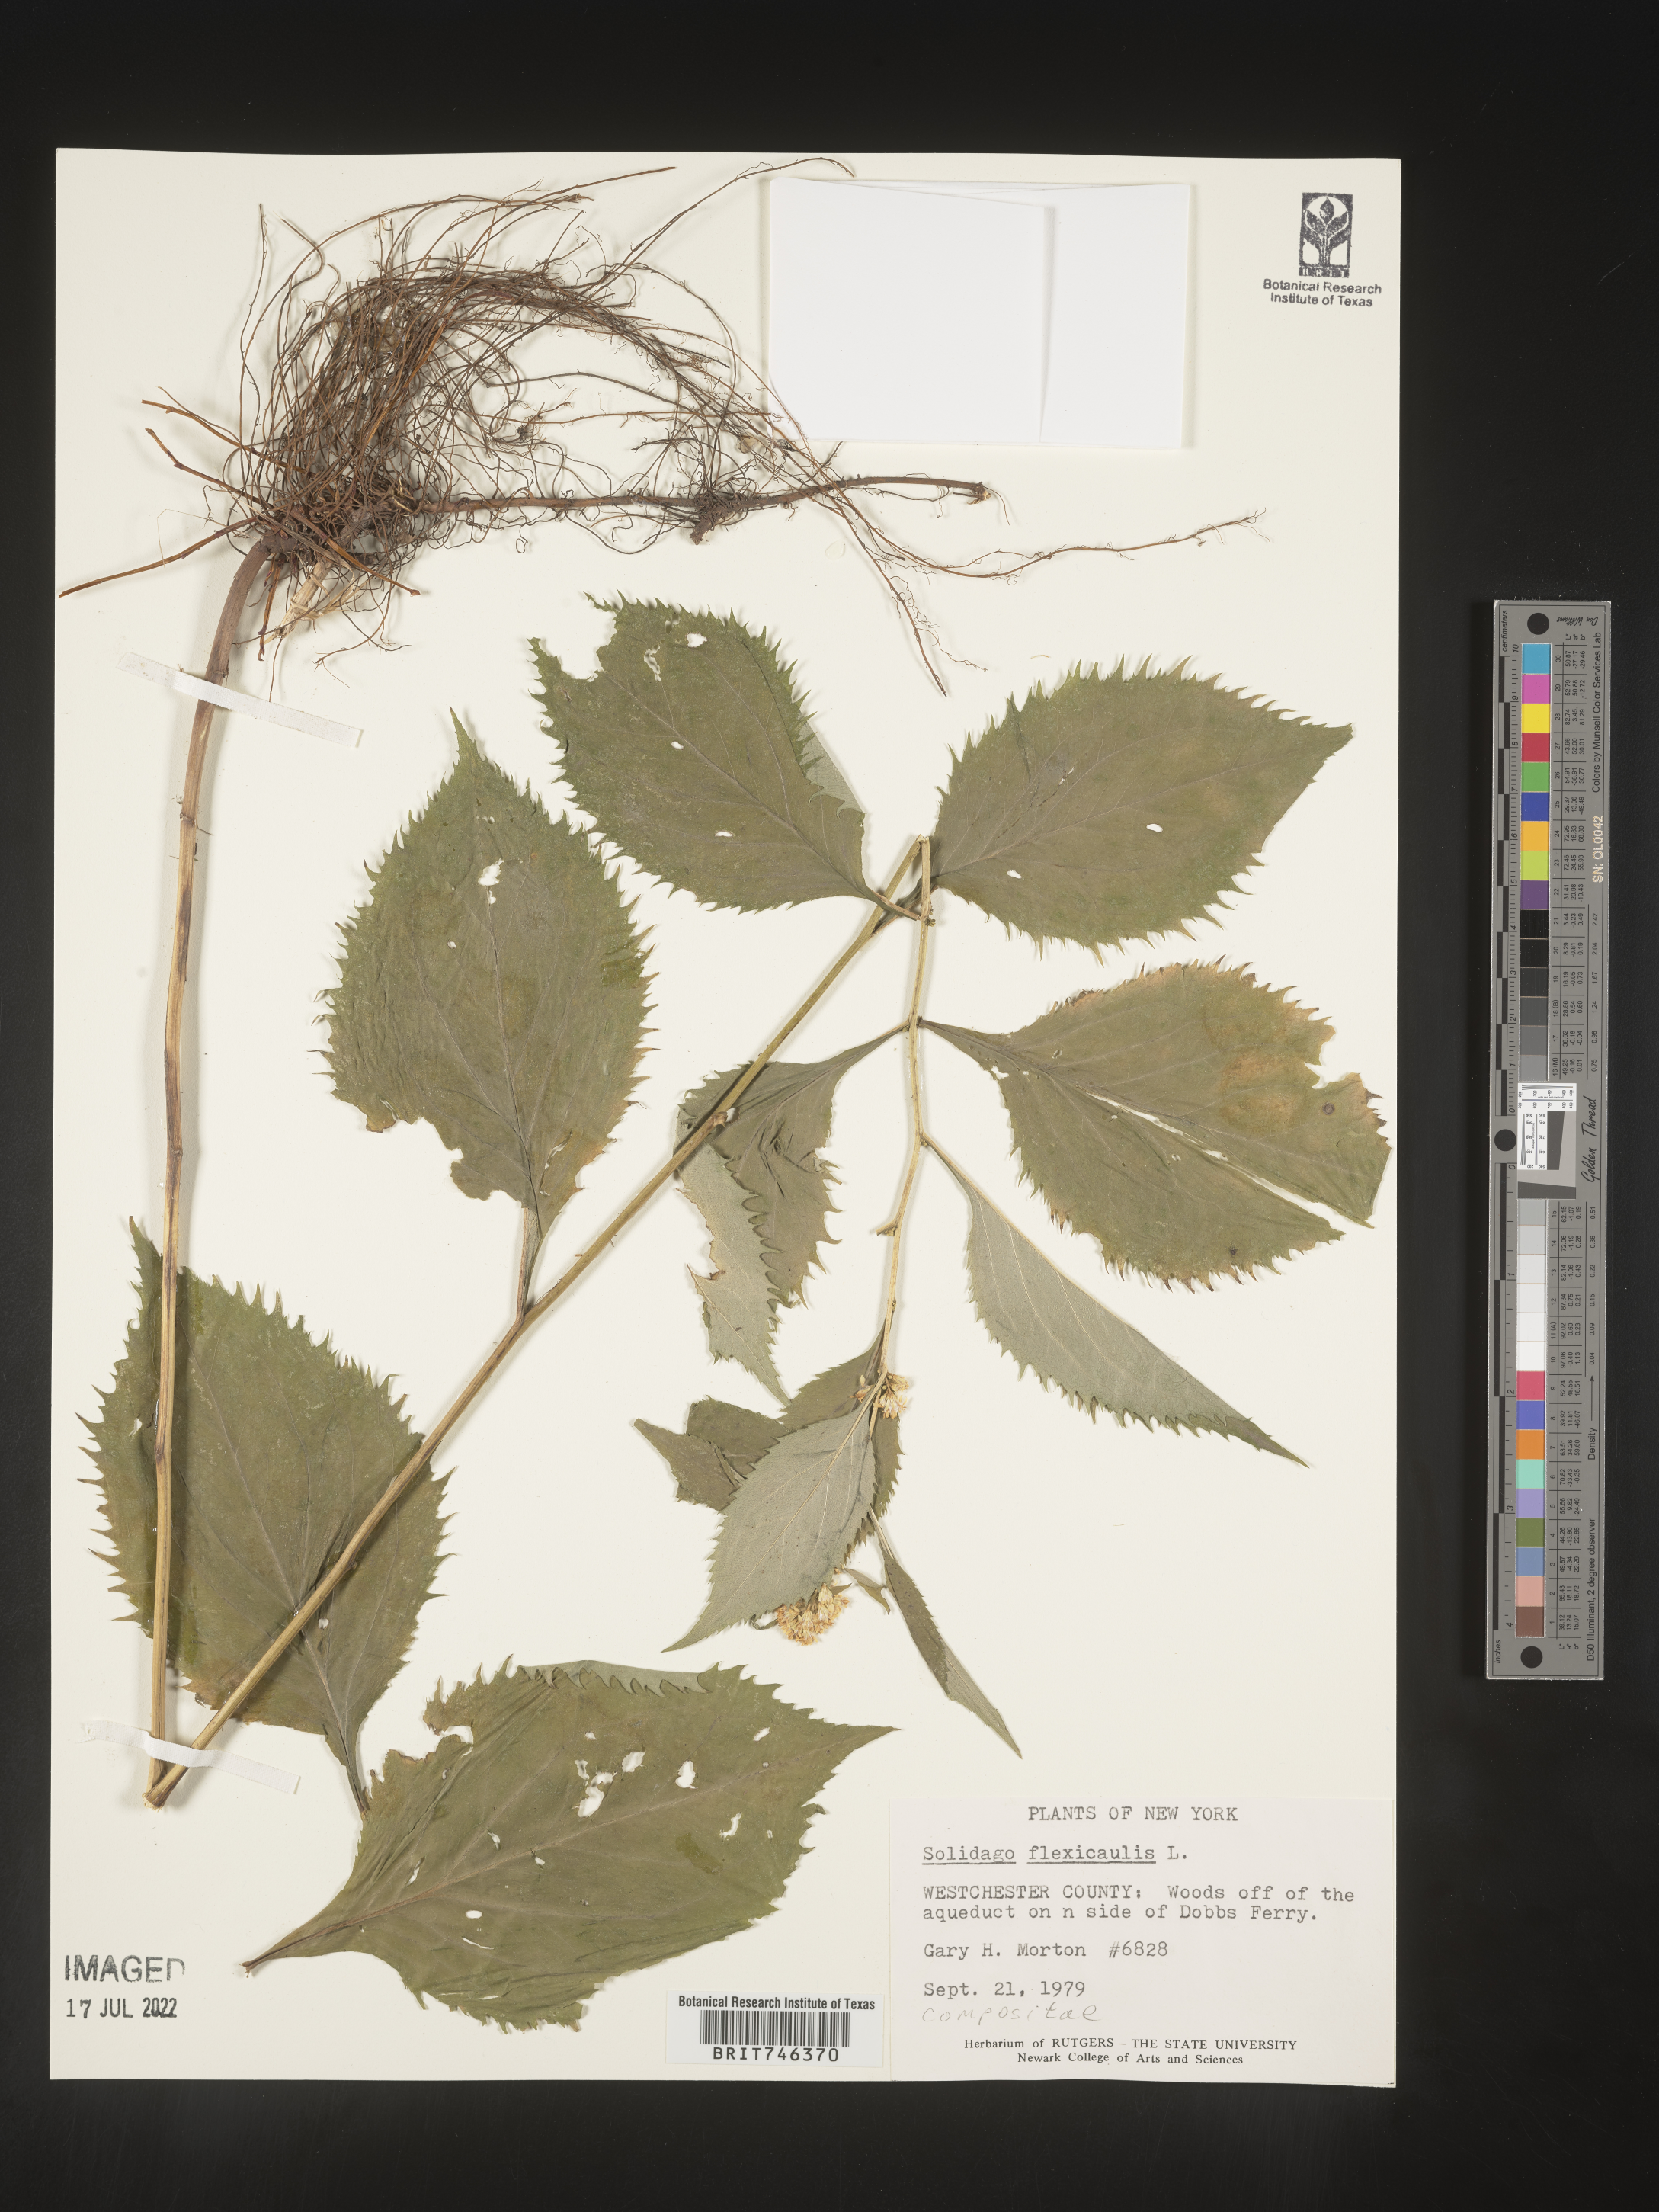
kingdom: Plantae
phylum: Tracheophyta
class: Magnoliopsida
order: Asterales
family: Asteraceae
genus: Solidago
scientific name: Solidago flexicaulis
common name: Zig-zag goldenrod
